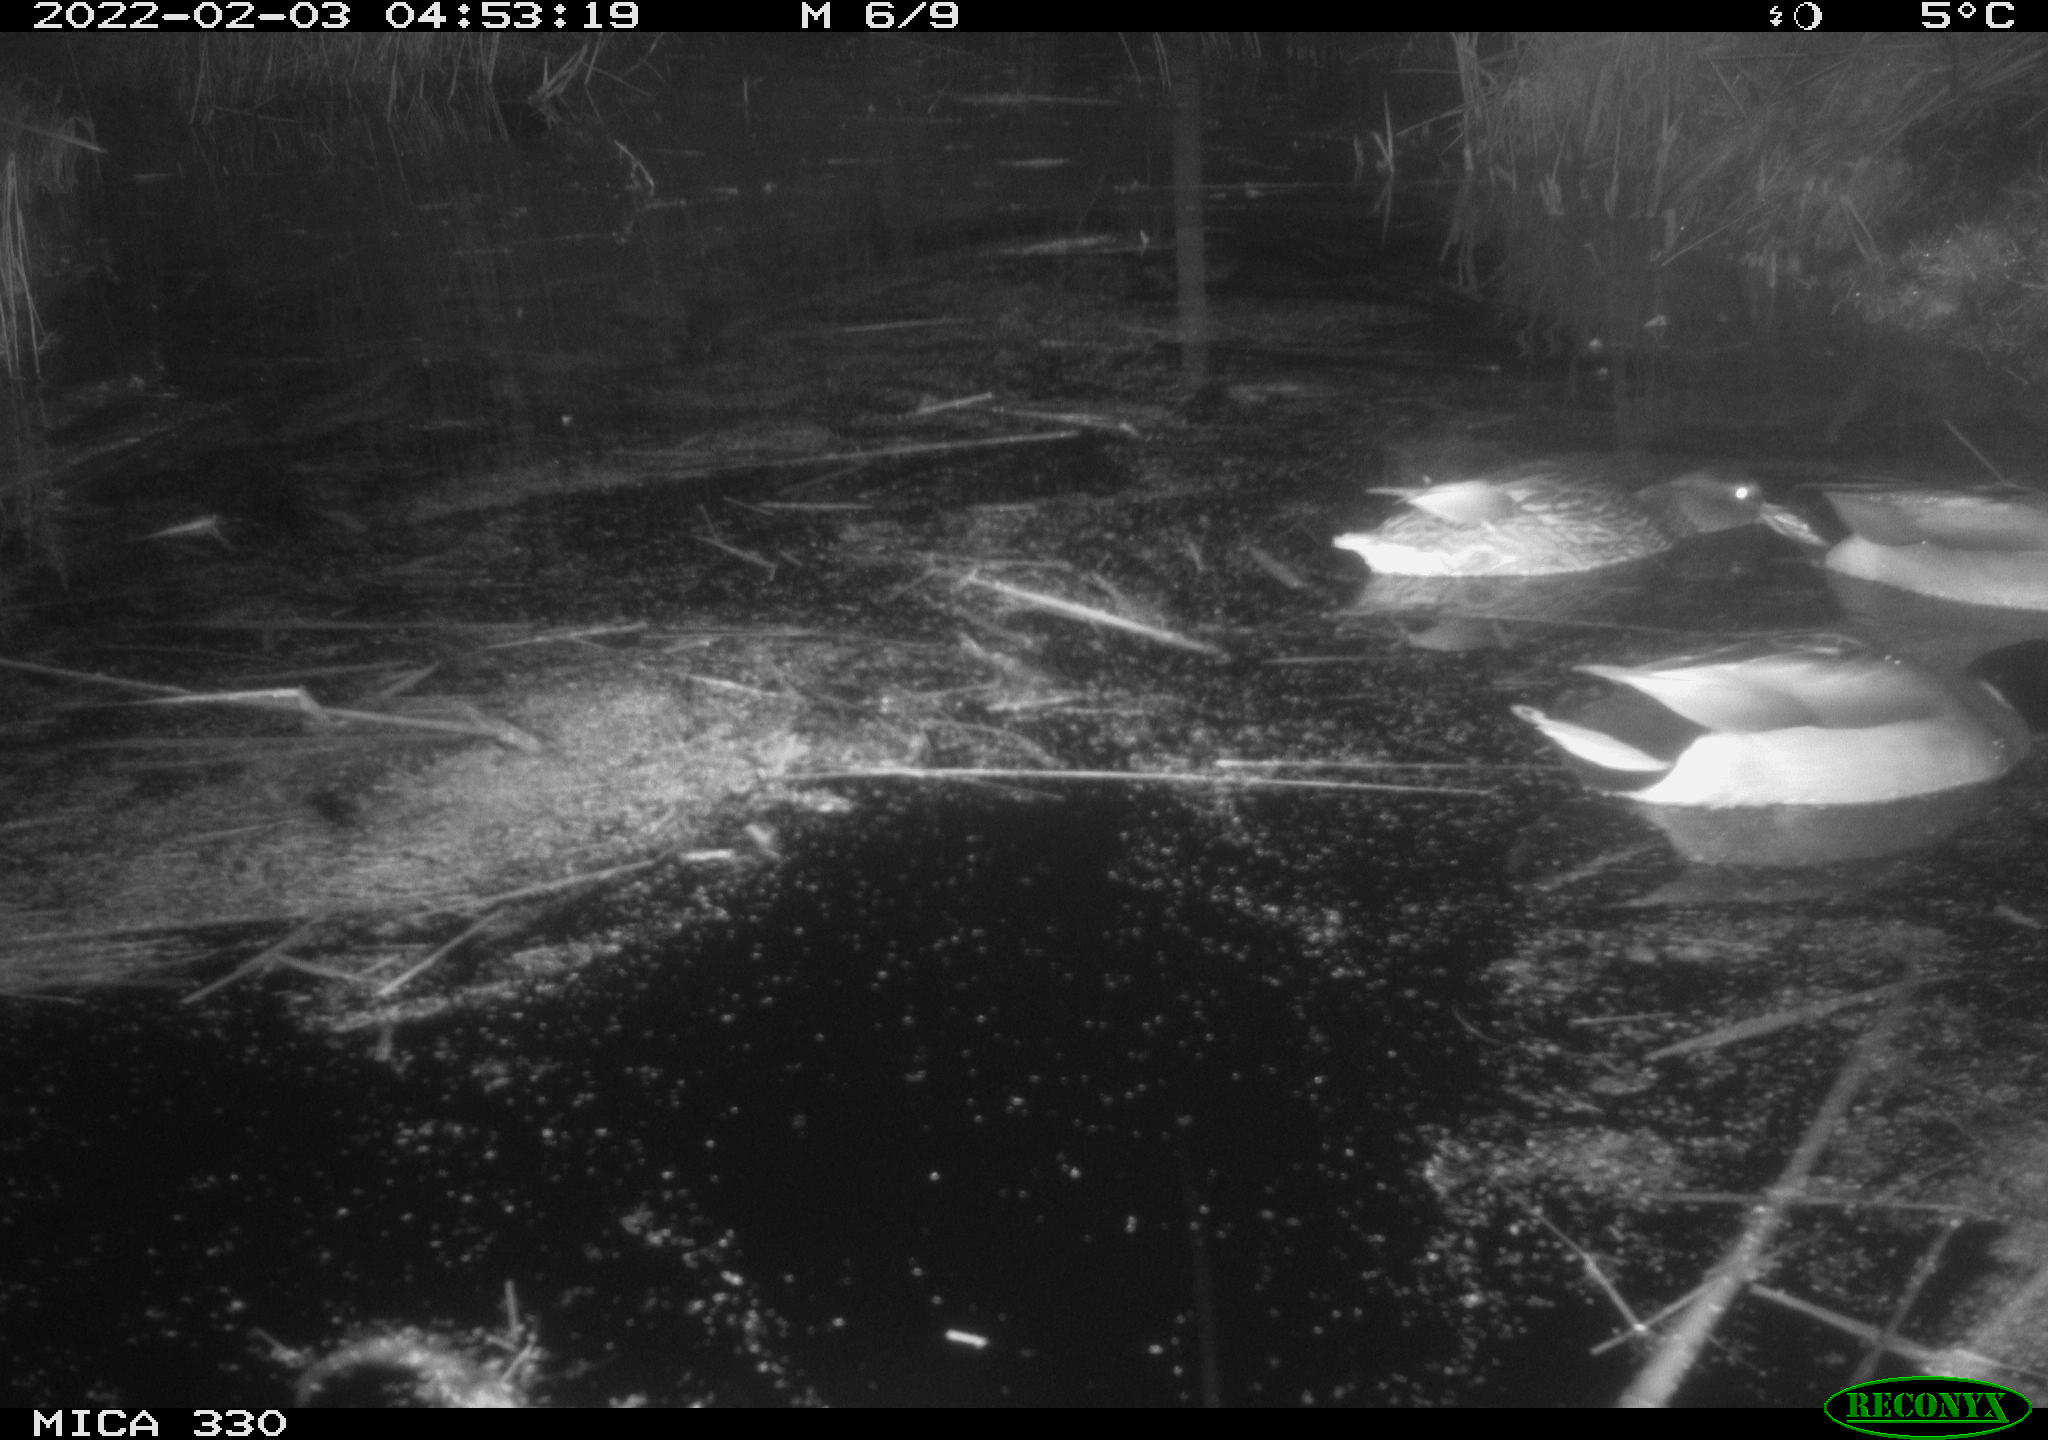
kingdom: Animalia
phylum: Chordata
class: Aves
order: Anseriformes
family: Anatidae
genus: Anas
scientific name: Anas platyrhynchos
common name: Mallard
